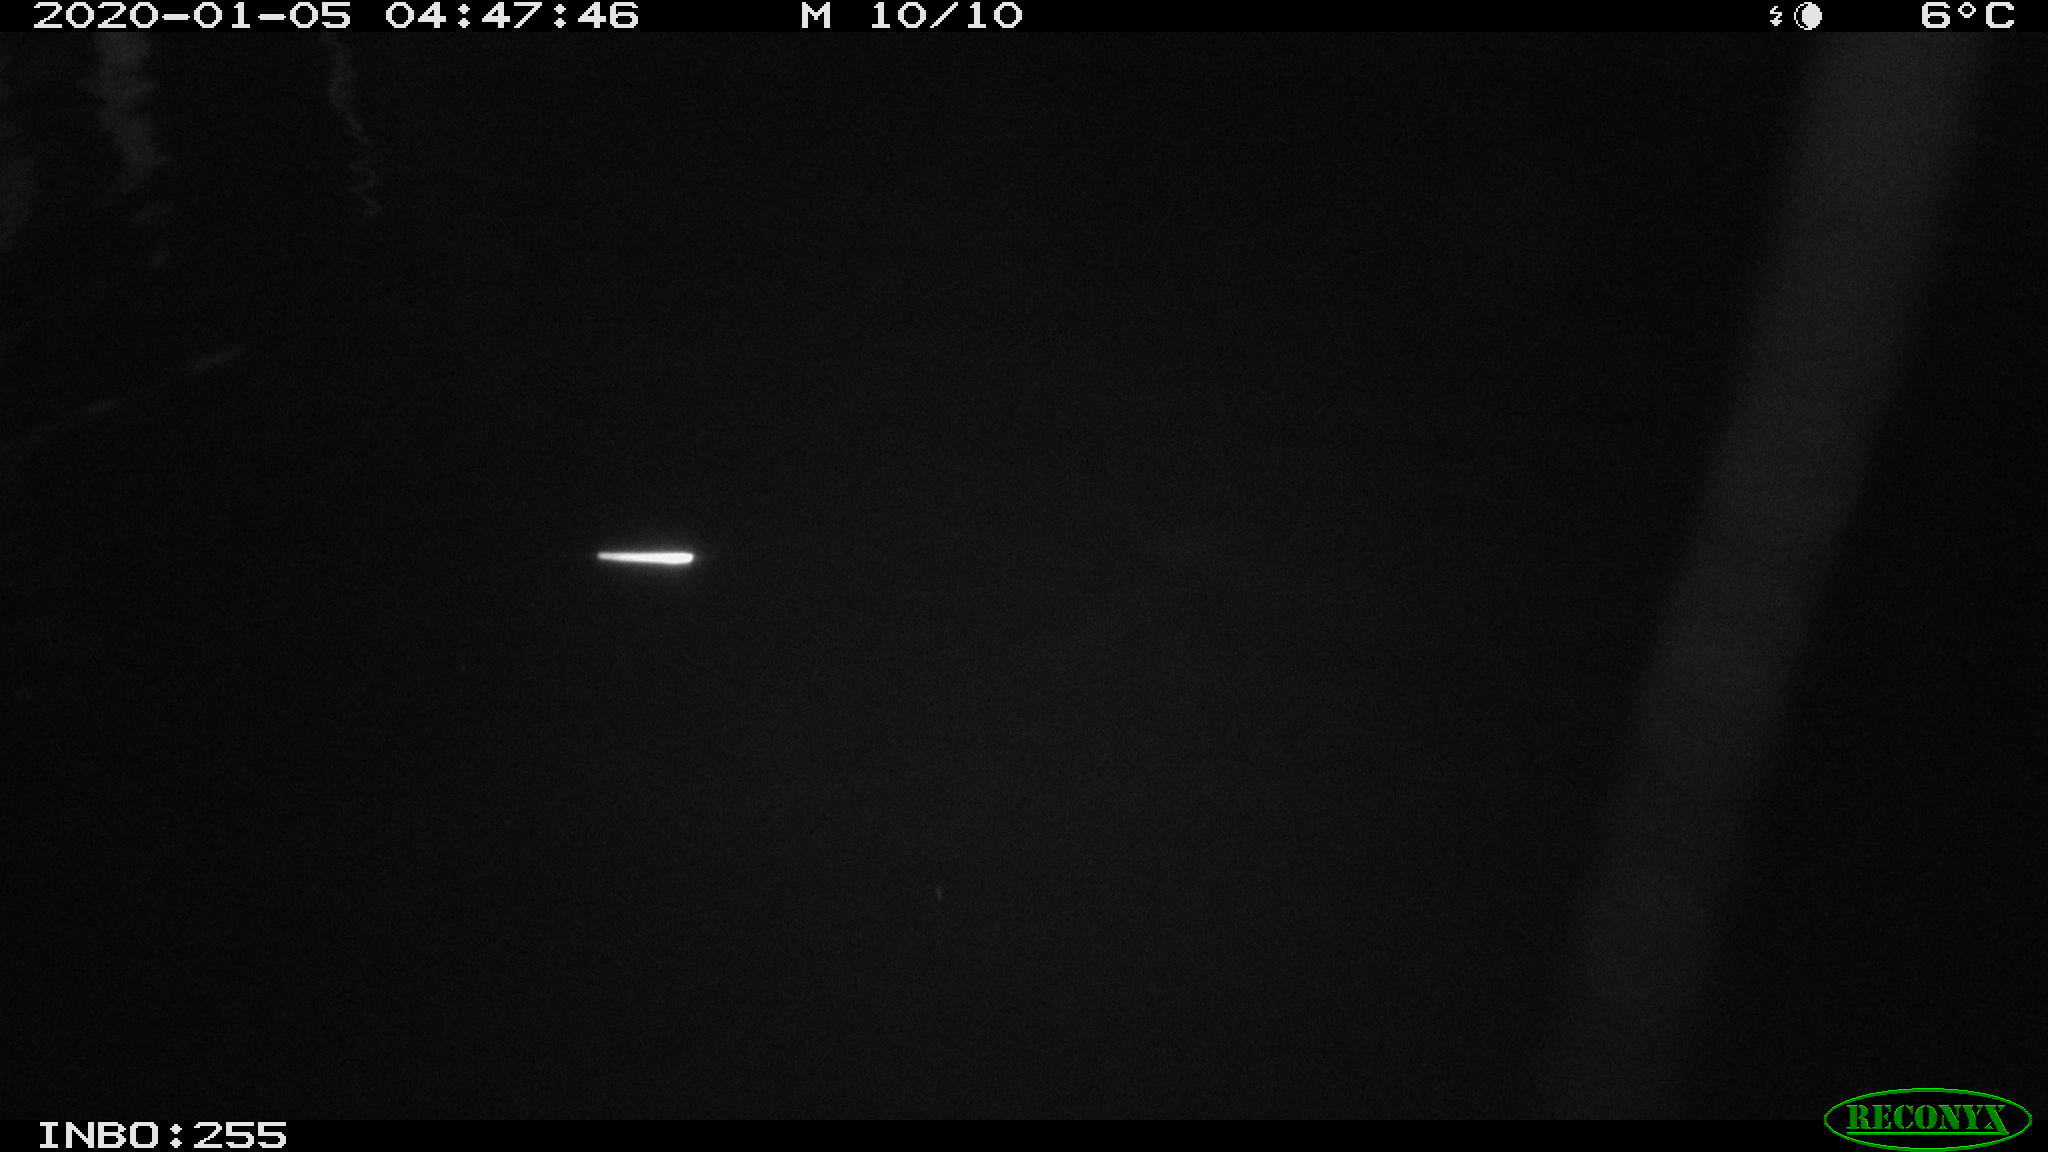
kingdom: Animalia
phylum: Chordata
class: Aves
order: Anseriformes
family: Anatidae
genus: Anas
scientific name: Anas platyrhynchos
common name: Mallard
